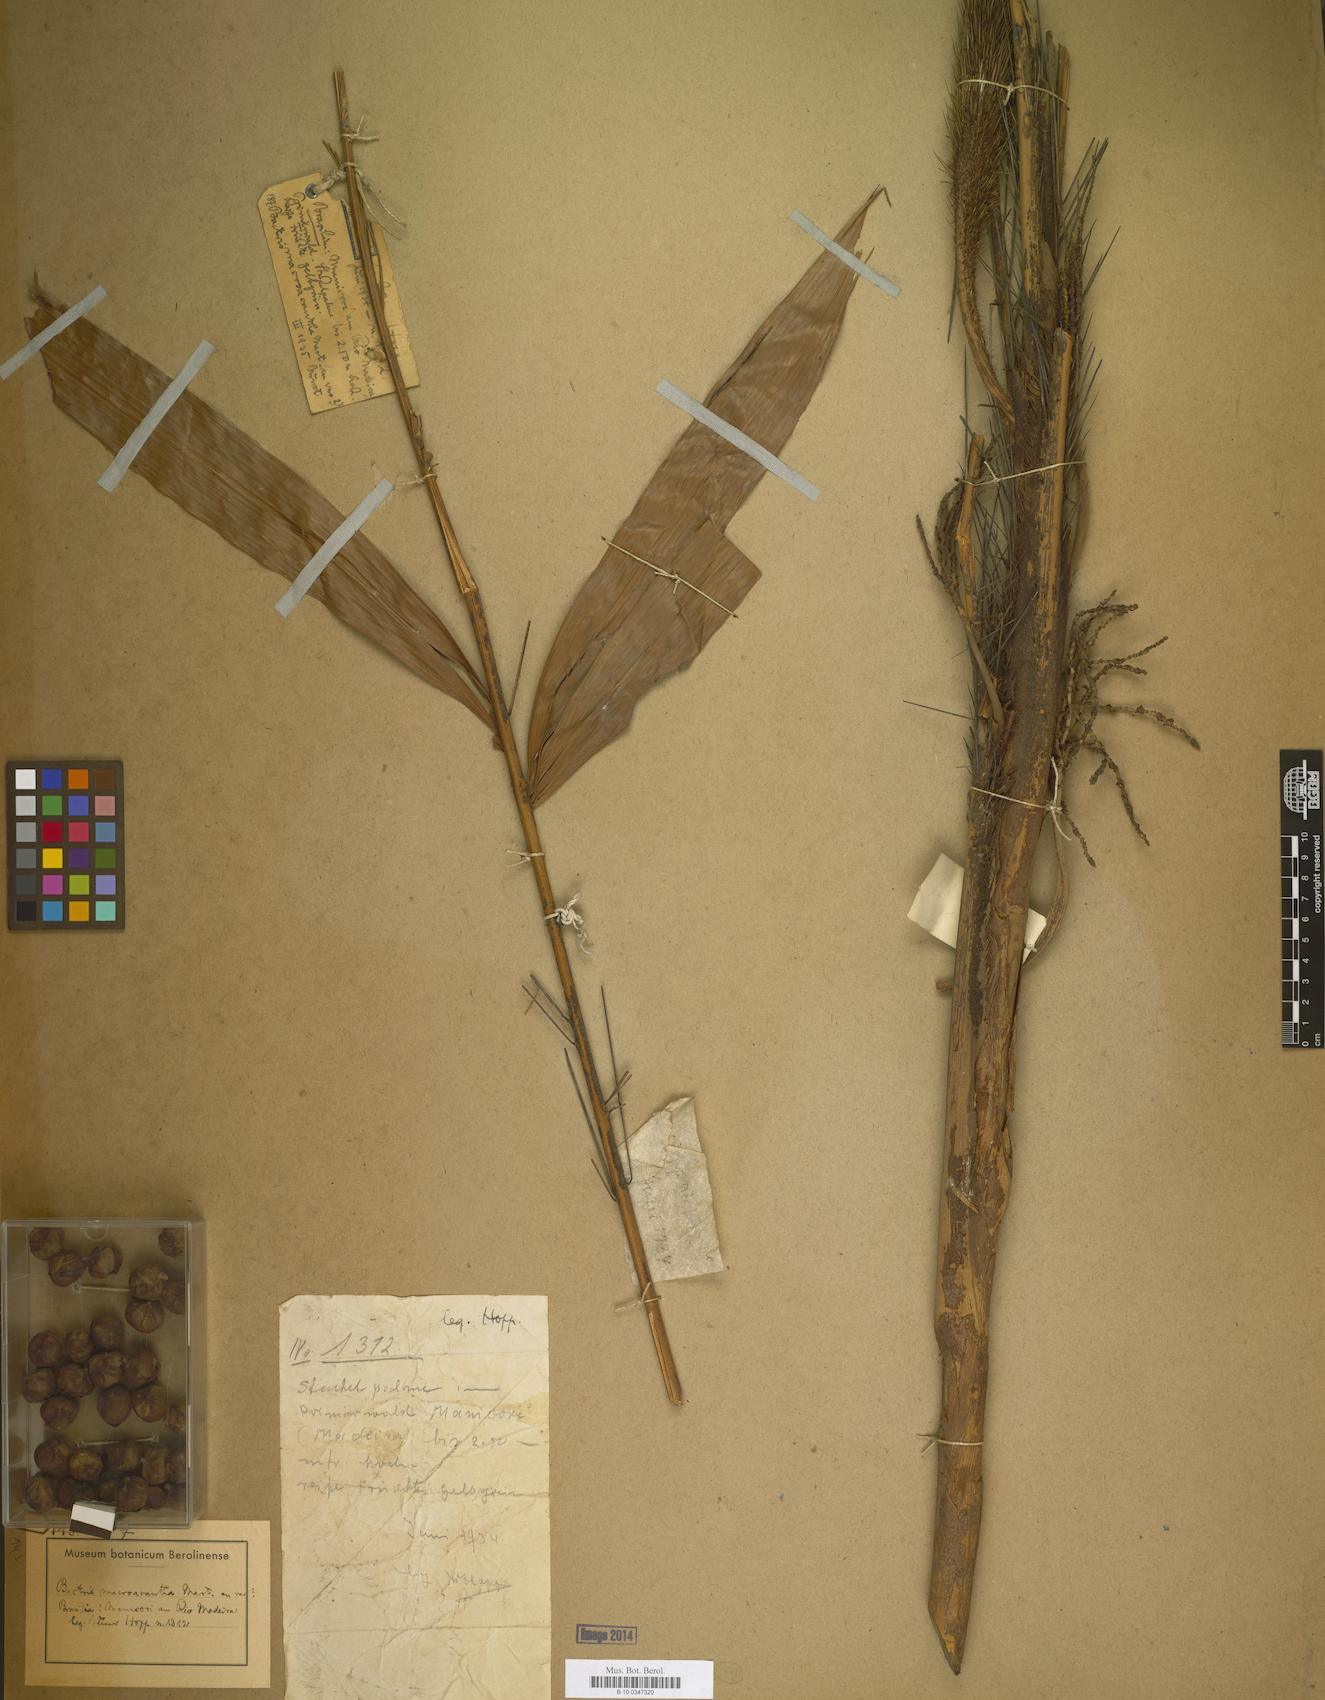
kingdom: Plantae
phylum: Tracheophyta
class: Liliopsida
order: Arecales
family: Arecaceae
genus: Bactris
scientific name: Bactris macroacantha
